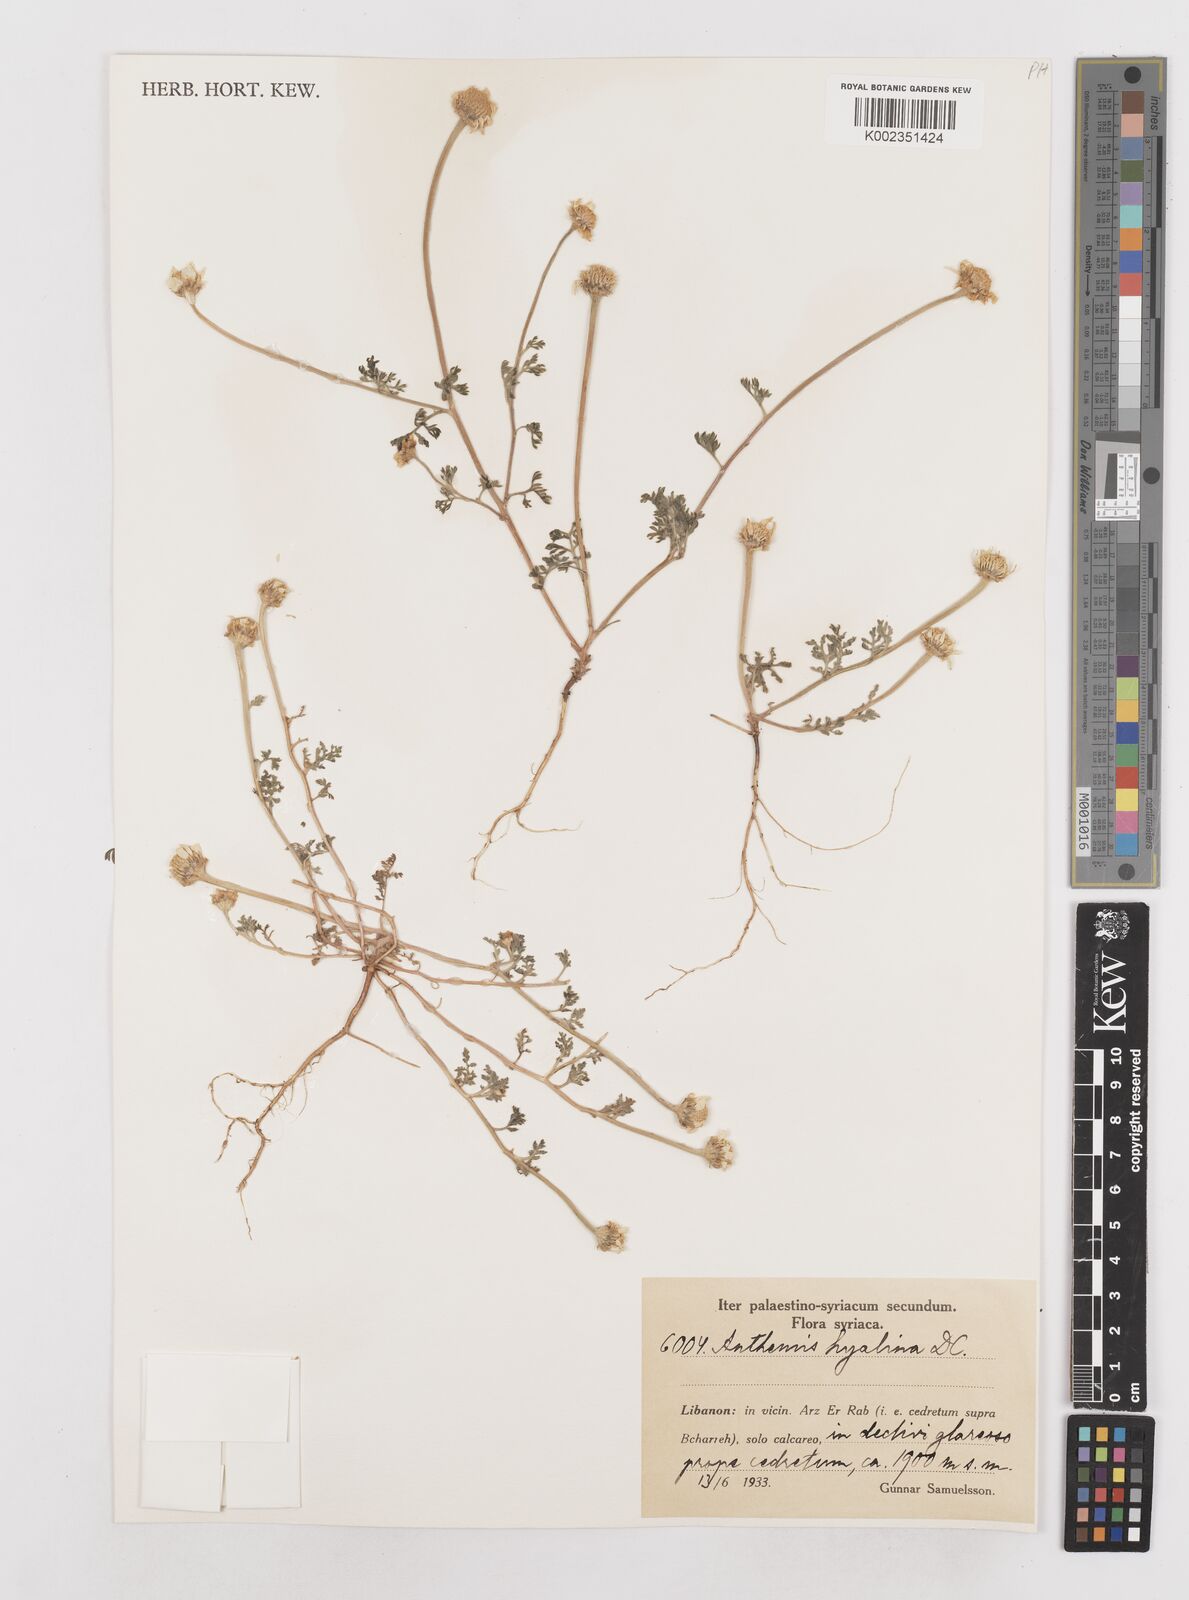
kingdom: Plantae
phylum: Tracheophyta
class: Magnoliopsida
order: Asterales
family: Asteraceae
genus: Anthemis
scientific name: Anthemis hyalina
